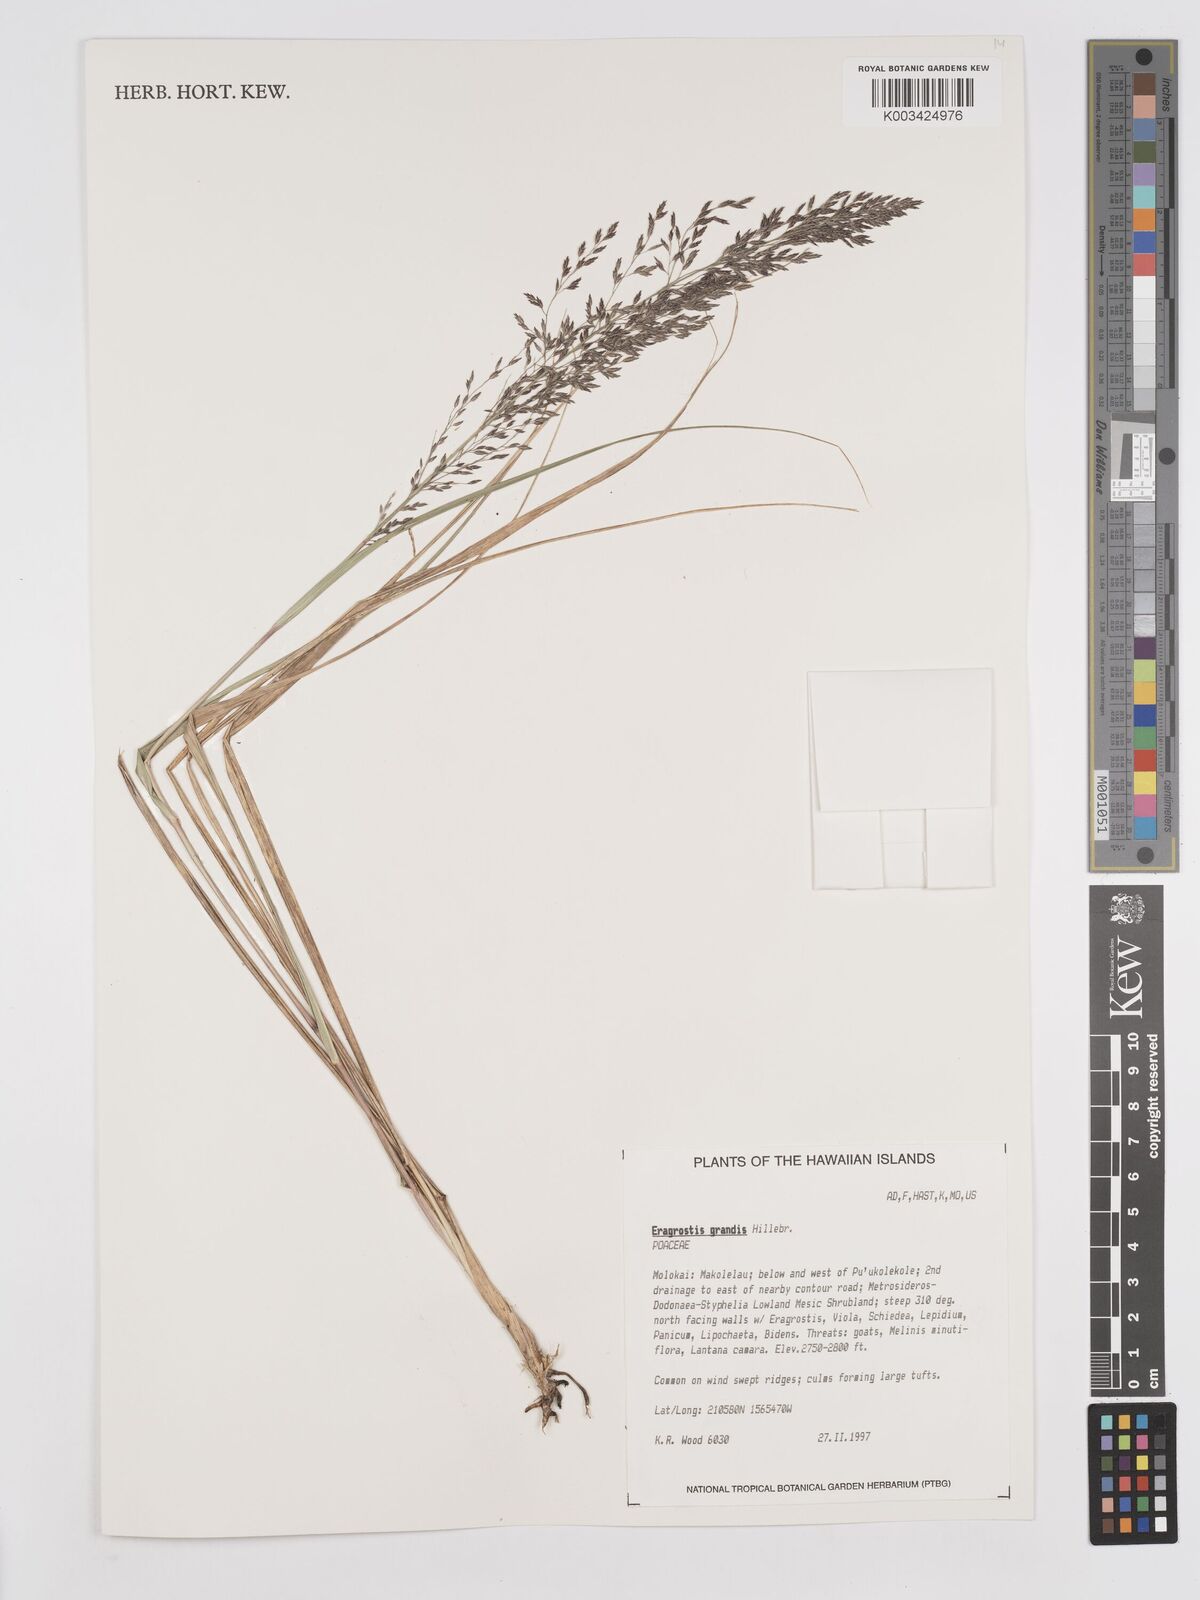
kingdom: Plantae
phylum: Tracheophyta
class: Liliopsida
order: Poales
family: Poaceae
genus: Eragrostis
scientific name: Eragrostis grandis
